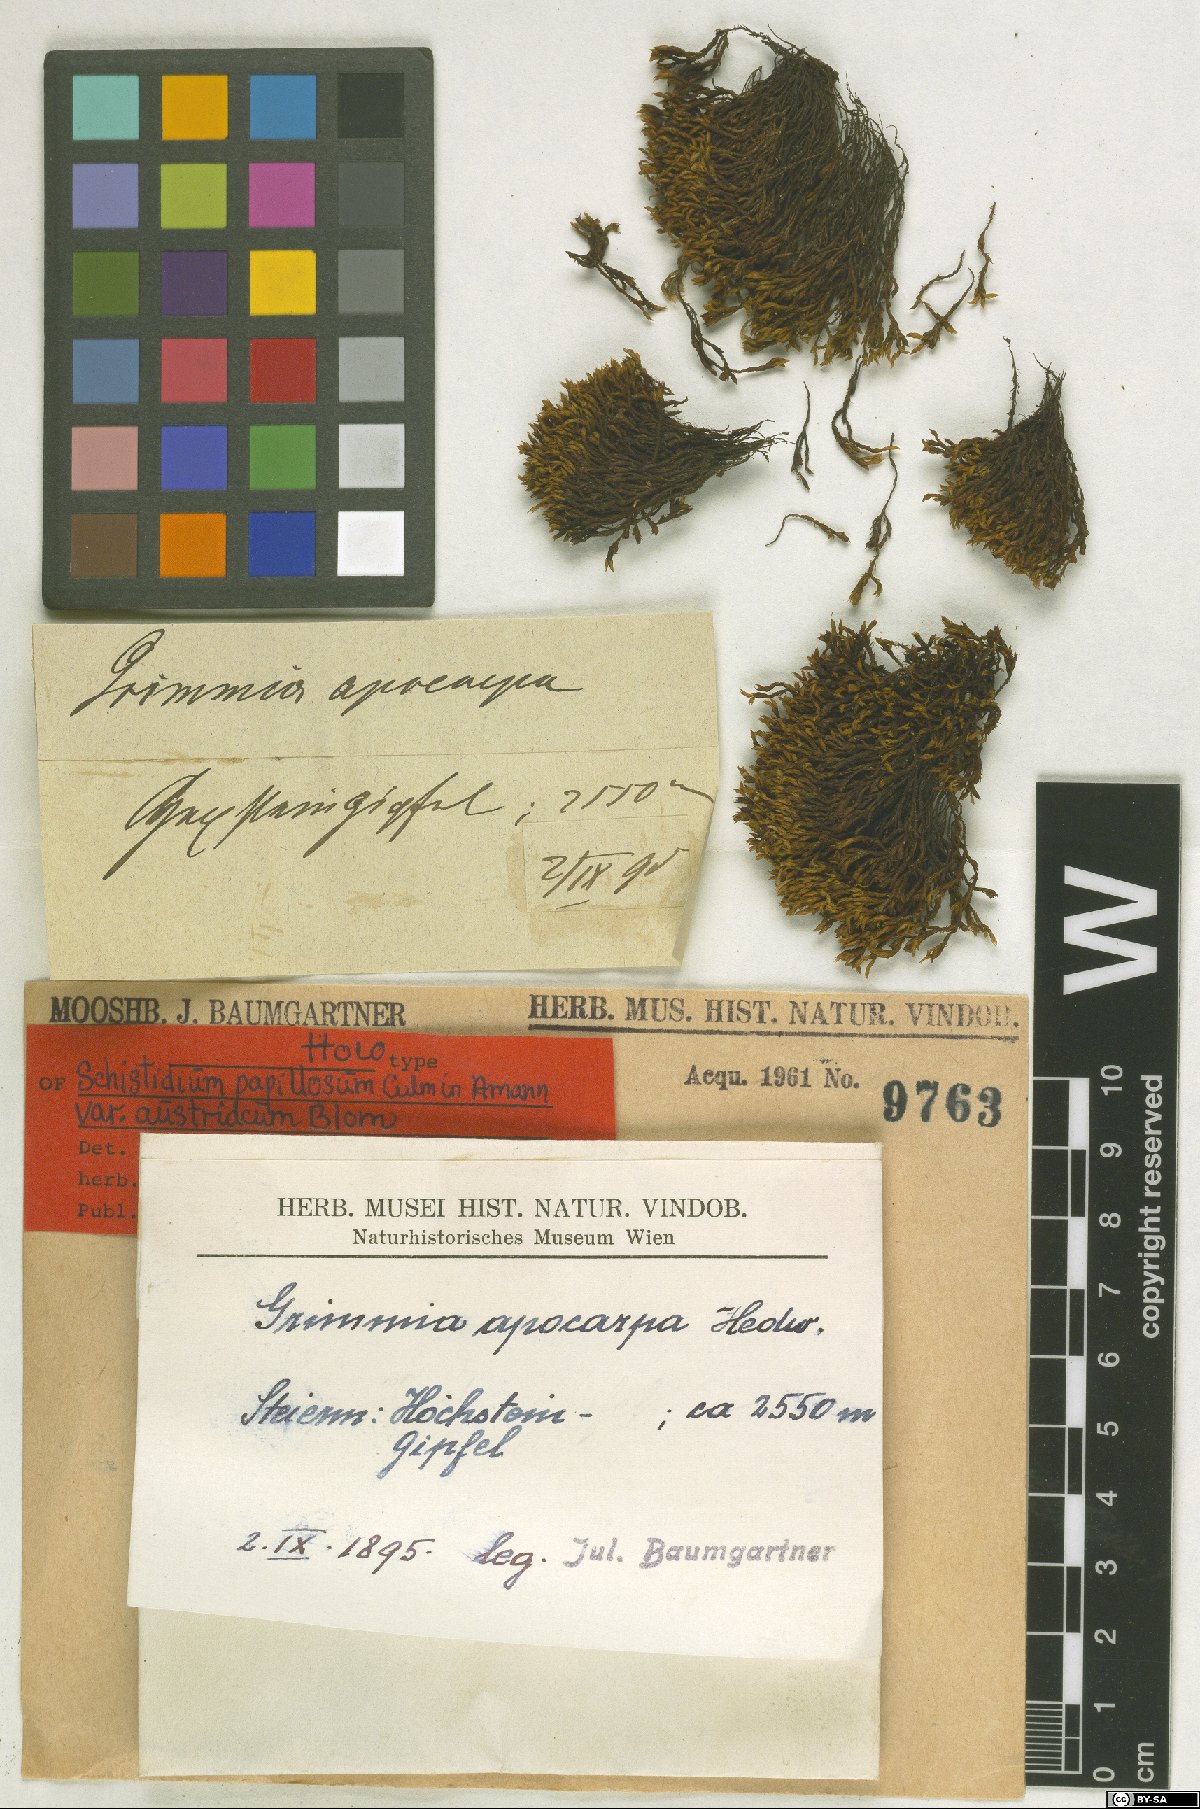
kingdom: Plantae
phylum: Bryophyta
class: Bryopsida
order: Grimmiales
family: Grimmiaceae
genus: Schistidium
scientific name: Schistidium papillosum
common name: Papillose bloom moss
